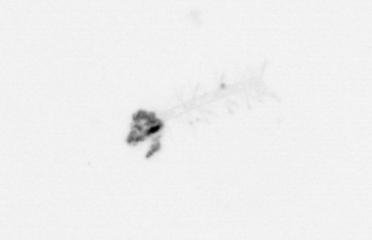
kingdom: Chromista
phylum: Ochrophyta
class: Bacillariophyceae
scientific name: Bacillariophyceae
